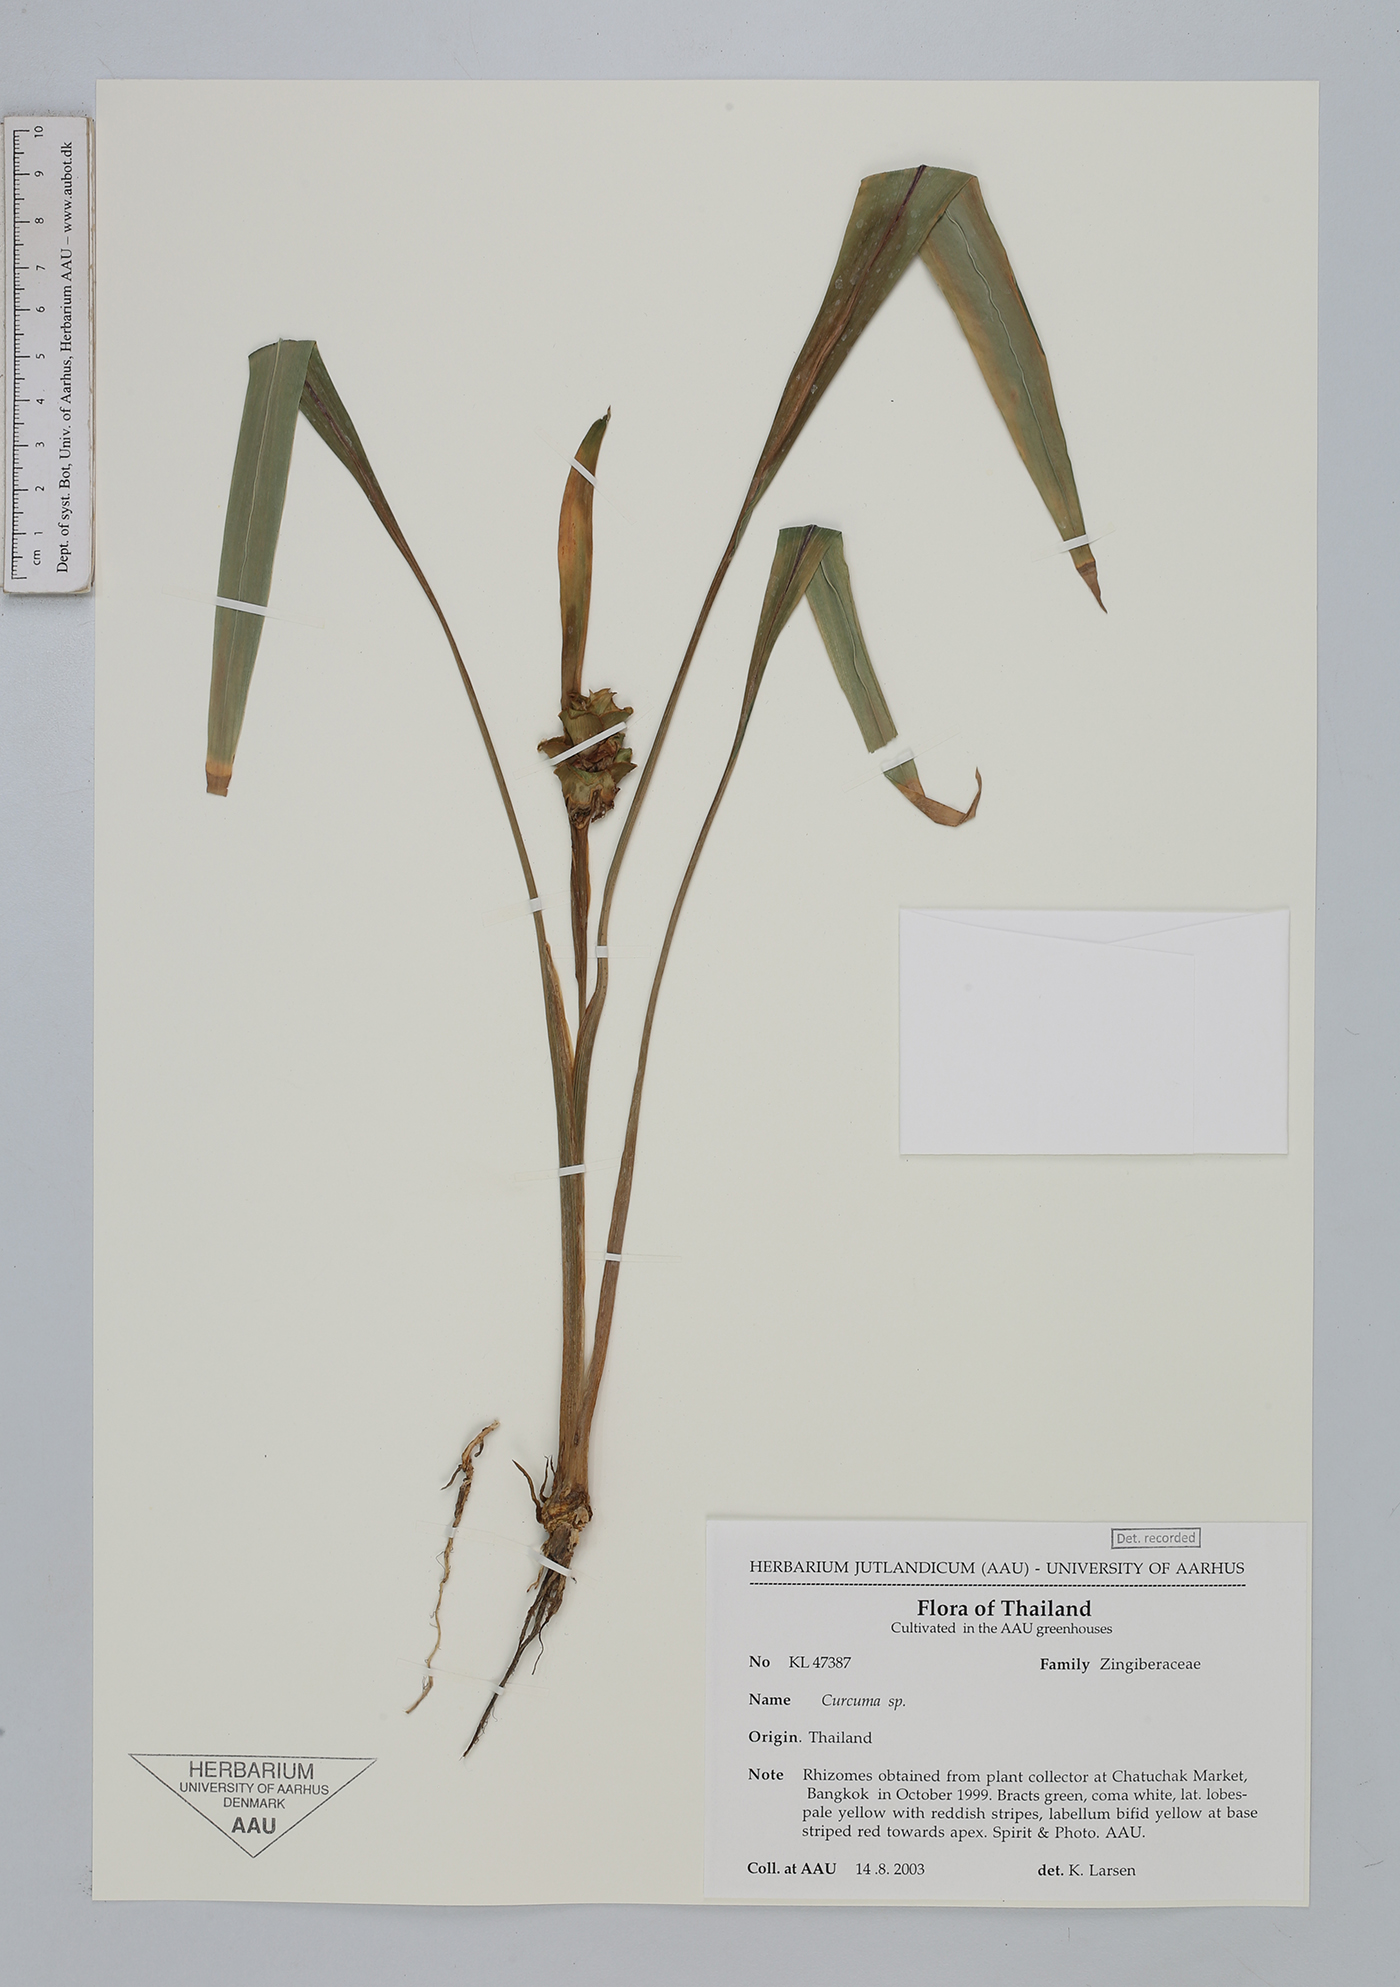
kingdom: Plantae
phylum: Tracheophyta
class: Liliopsida
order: Zingiberales
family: Zingiberaceae
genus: Curcuma
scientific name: Curcuma larsenii
